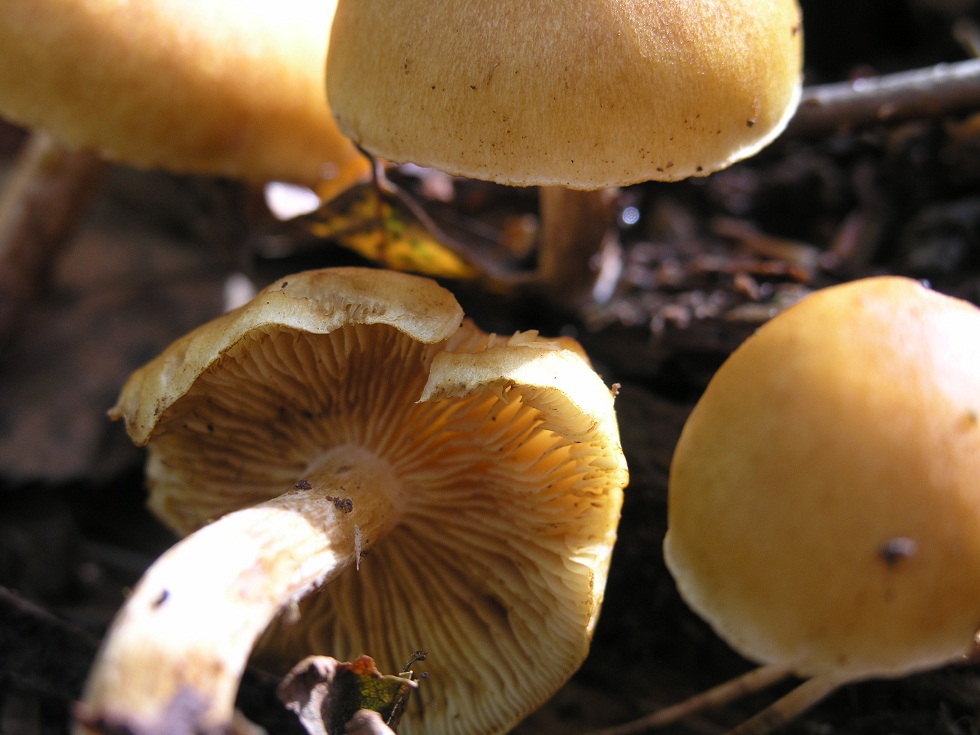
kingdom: Fungi
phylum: Basidiomycota
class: Agaricomycetes
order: Agaricales
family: Hymenogastraceae
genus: Gymnopilus
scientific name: Gymnopilus penetrans
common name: plettet flammehat
